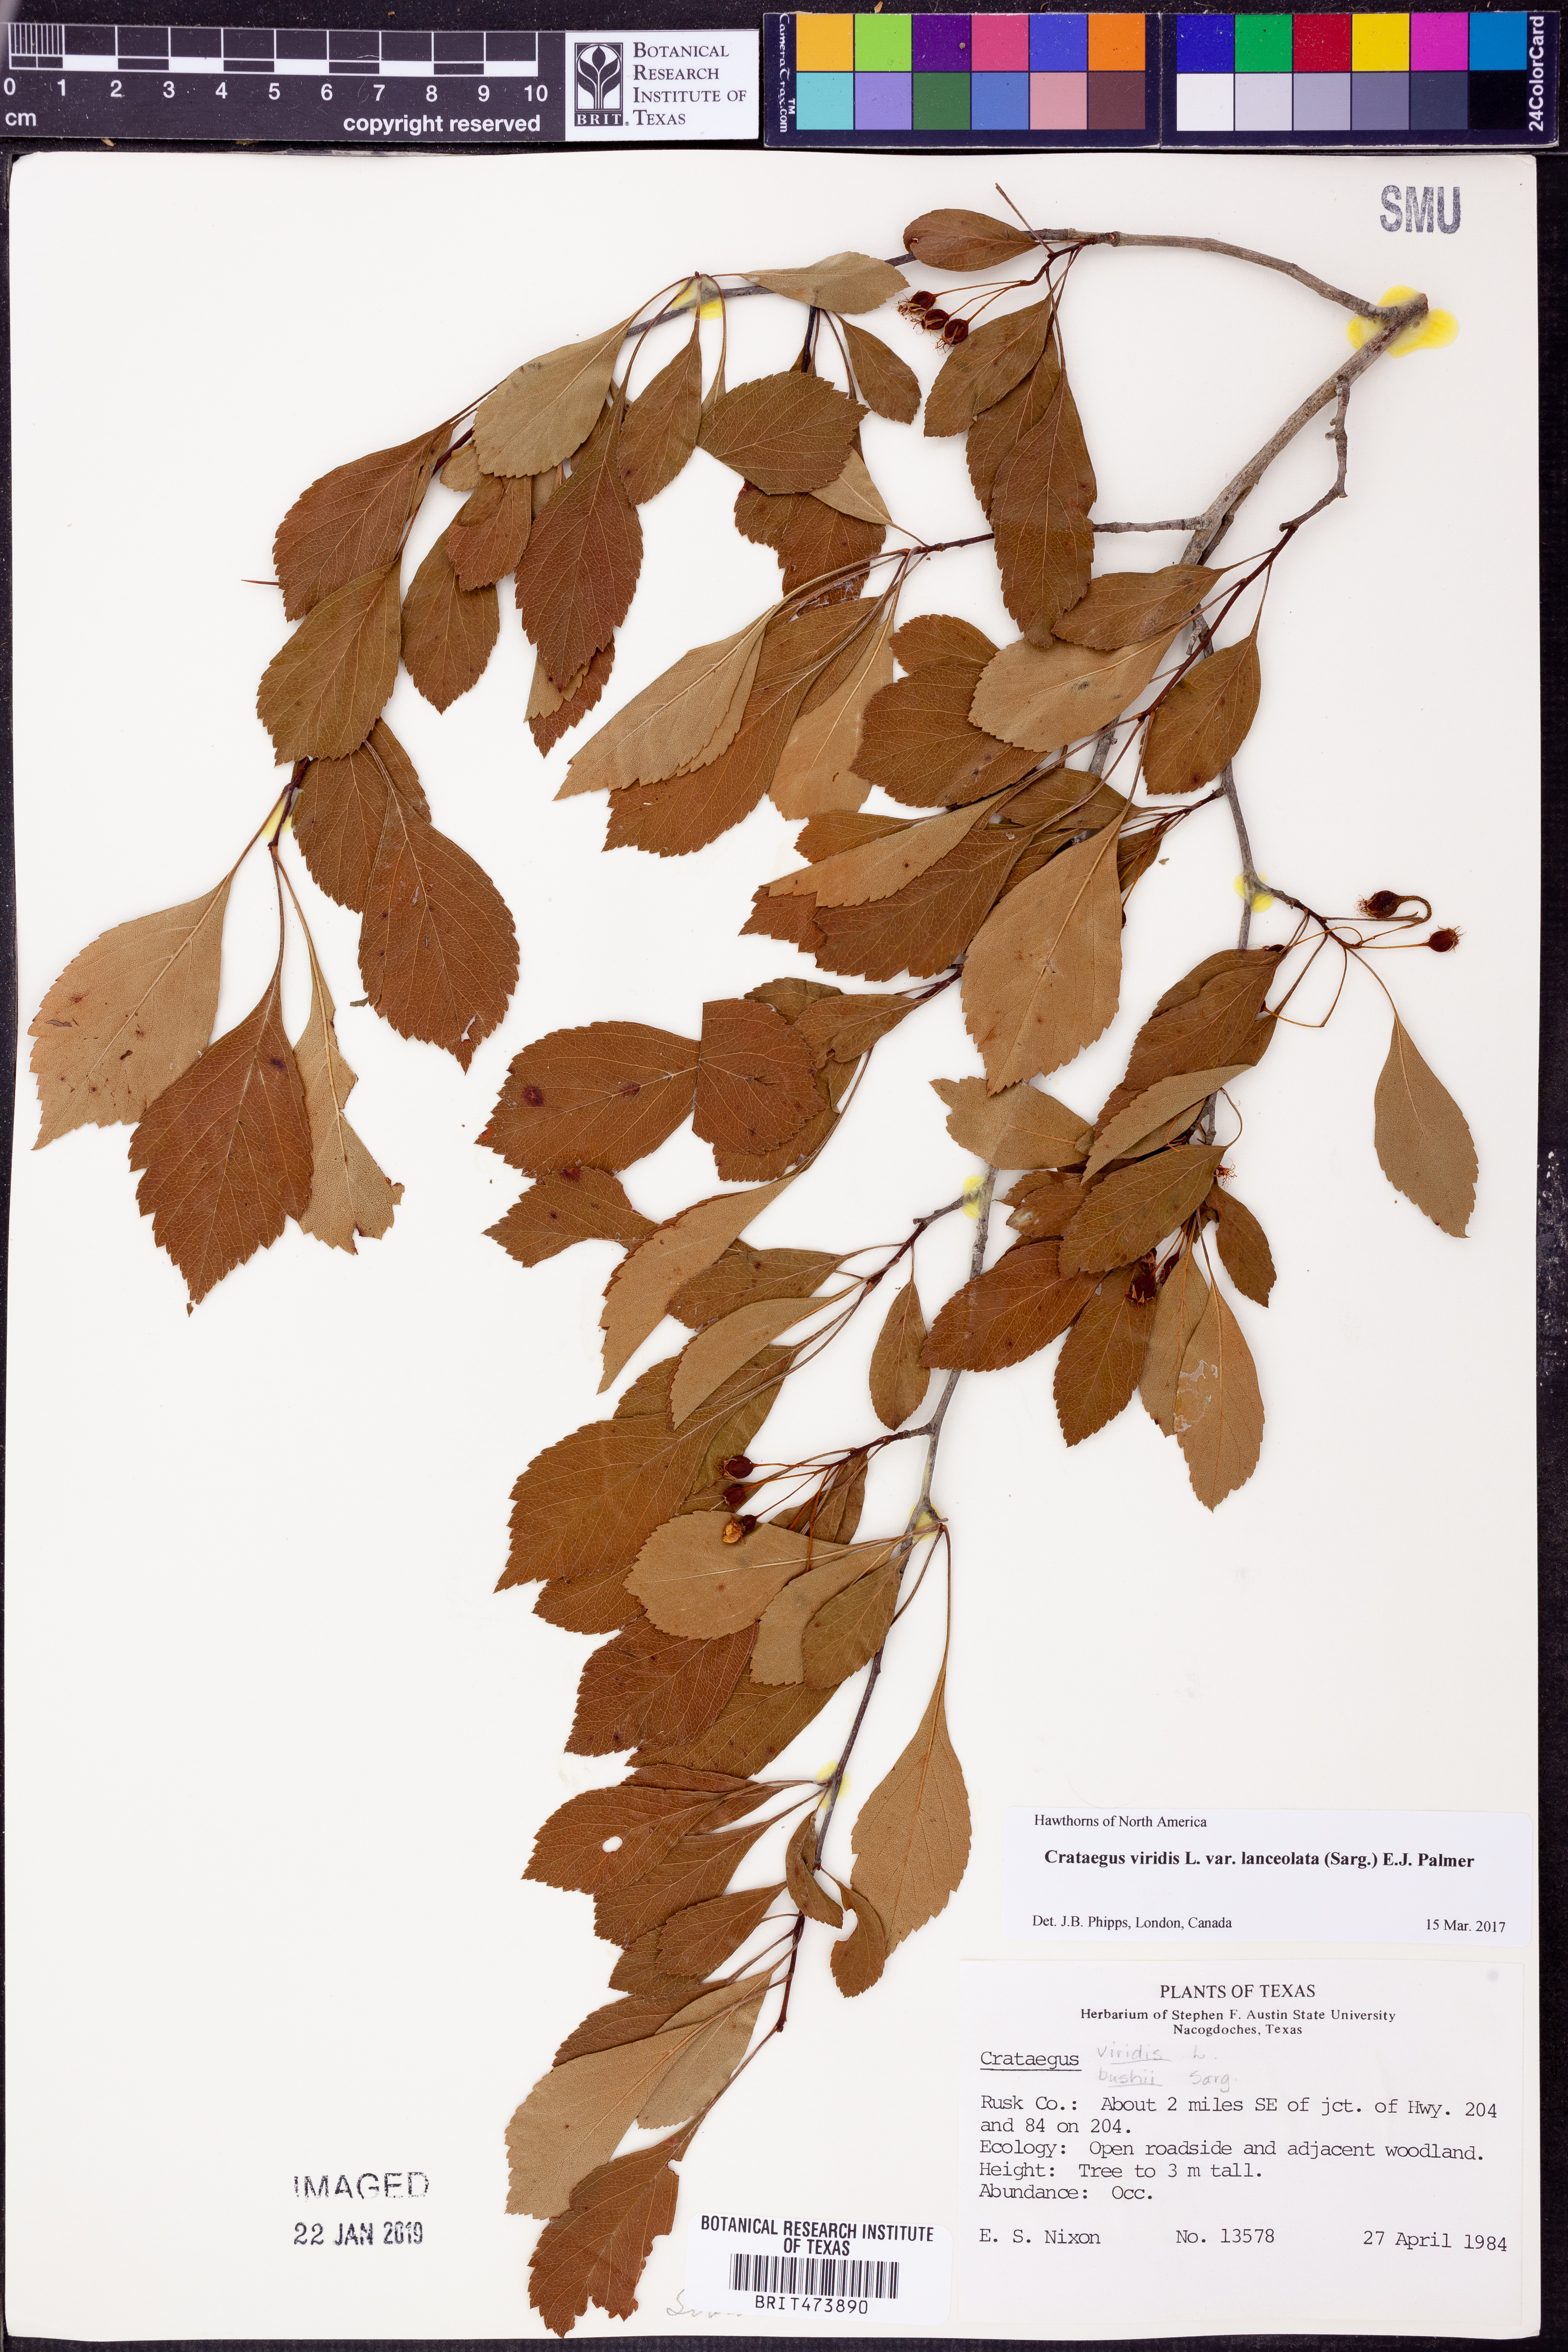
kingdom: Plantae
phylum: Tracheophyta
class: Magnoliopsida
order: Rosales
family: Rosaceae
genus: Crataegus
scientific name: Crataegus viridis
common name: Southernthorn
